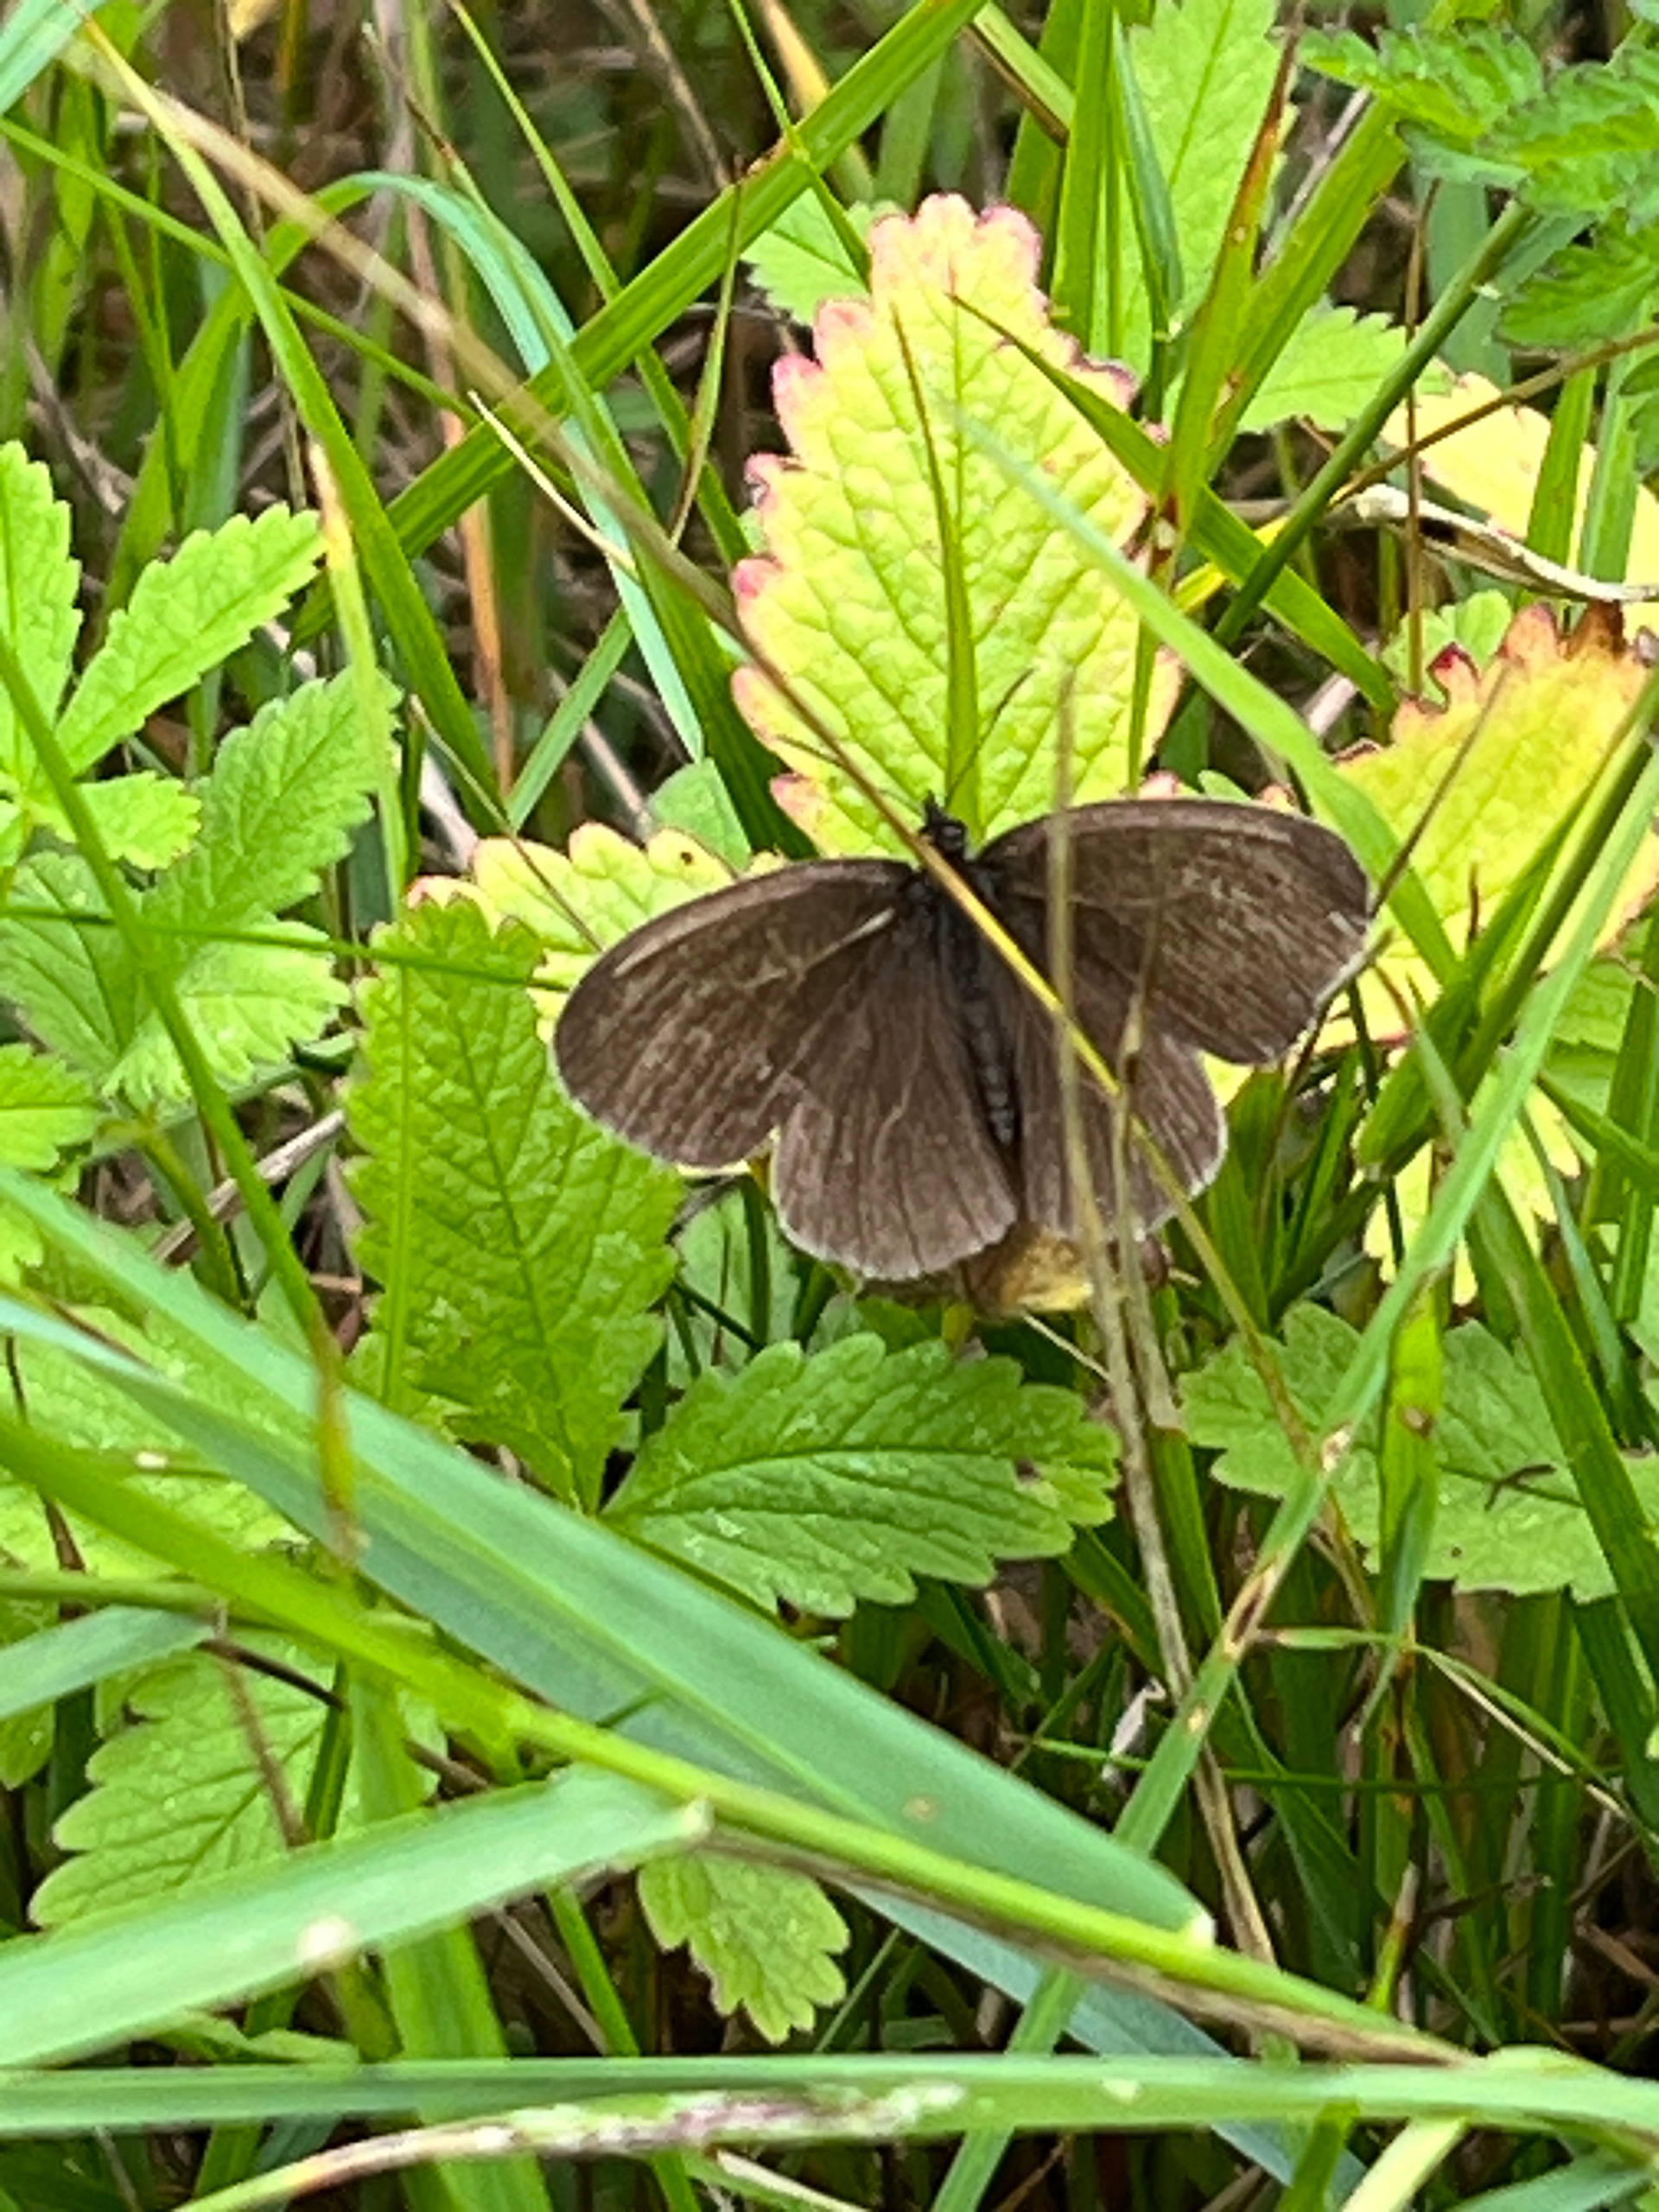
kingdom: Animalia
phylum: Arthropoda
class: Insecta
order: Lepidoptera
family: Nymphalidae
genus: Aphantopus
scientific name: Aphantopus hyperantus
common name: Engrandøje
